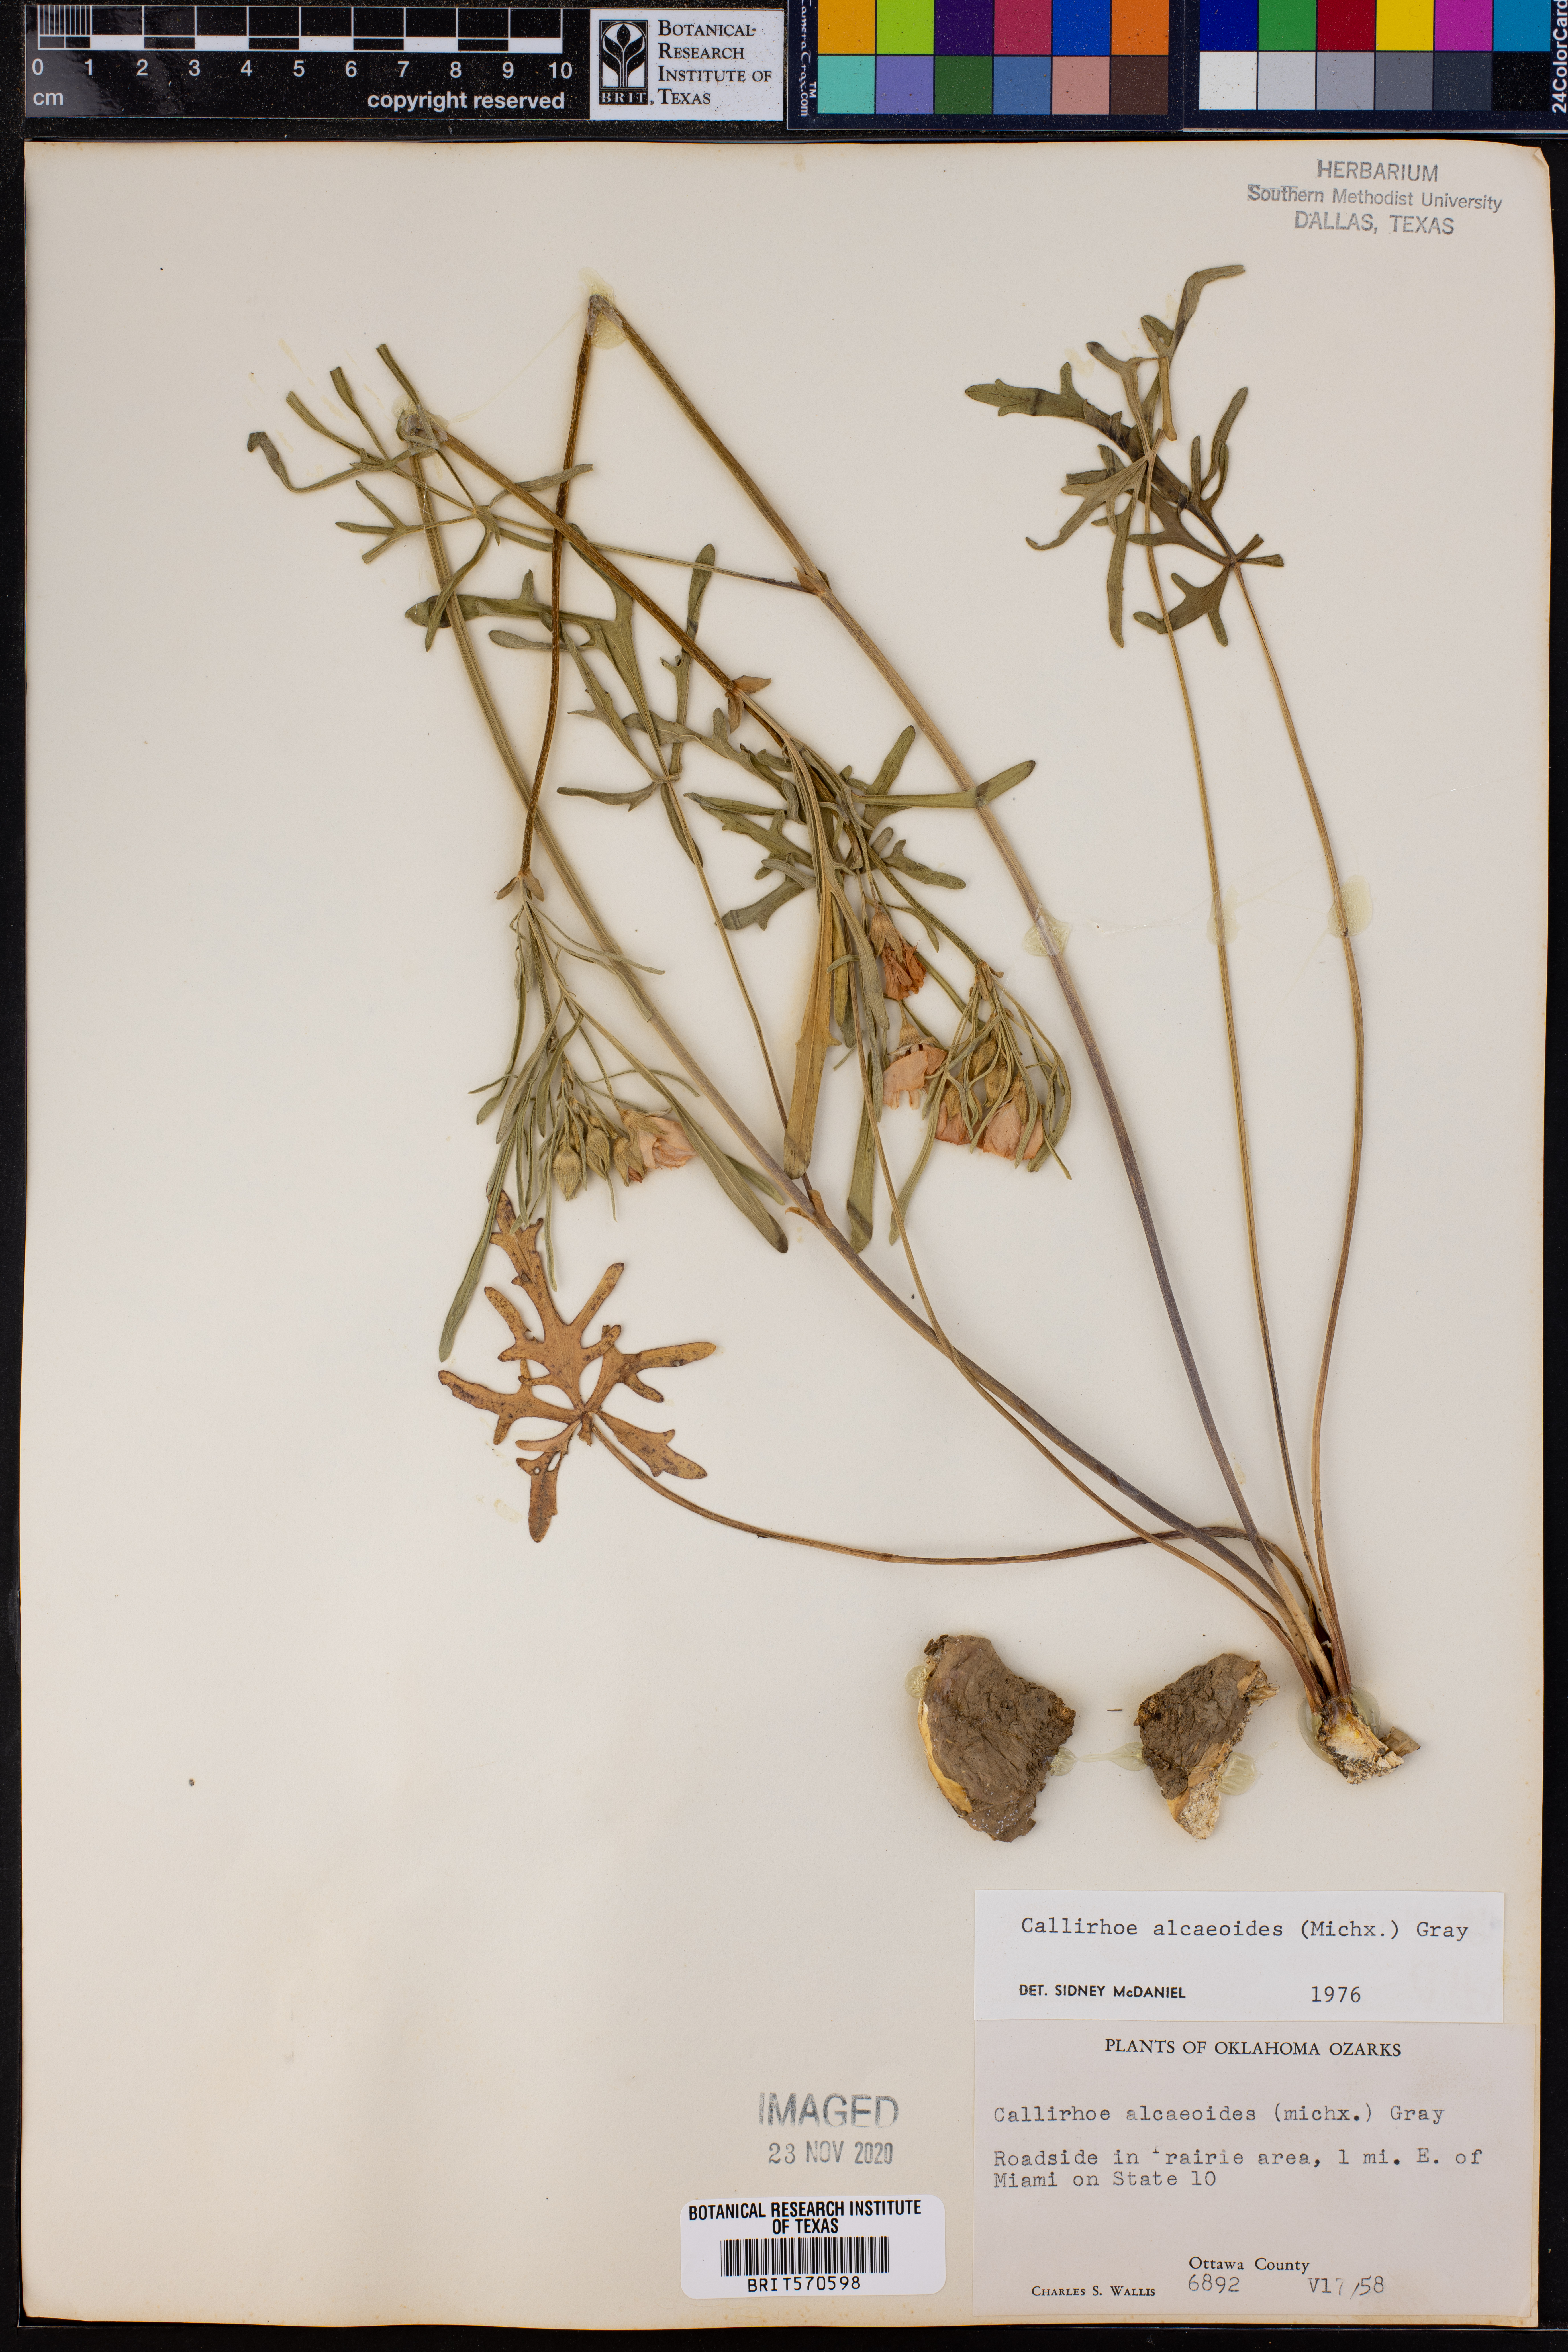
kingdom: Plantae
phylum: Tracheophyta
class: Magnoliopsida
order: Malvales
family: Malvaceae
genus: Callirhoe
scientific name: Callirhoe alcaeoides
